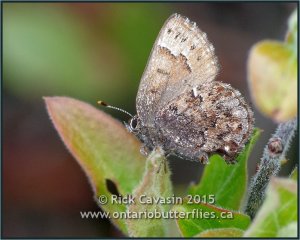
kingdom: Animalia
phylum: Arthropoda
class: Insecta
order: Lepidoptera
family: Lycaenidae
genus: Incisalia
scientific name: Incisalia lanoraieensis
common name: Bog Elfin
